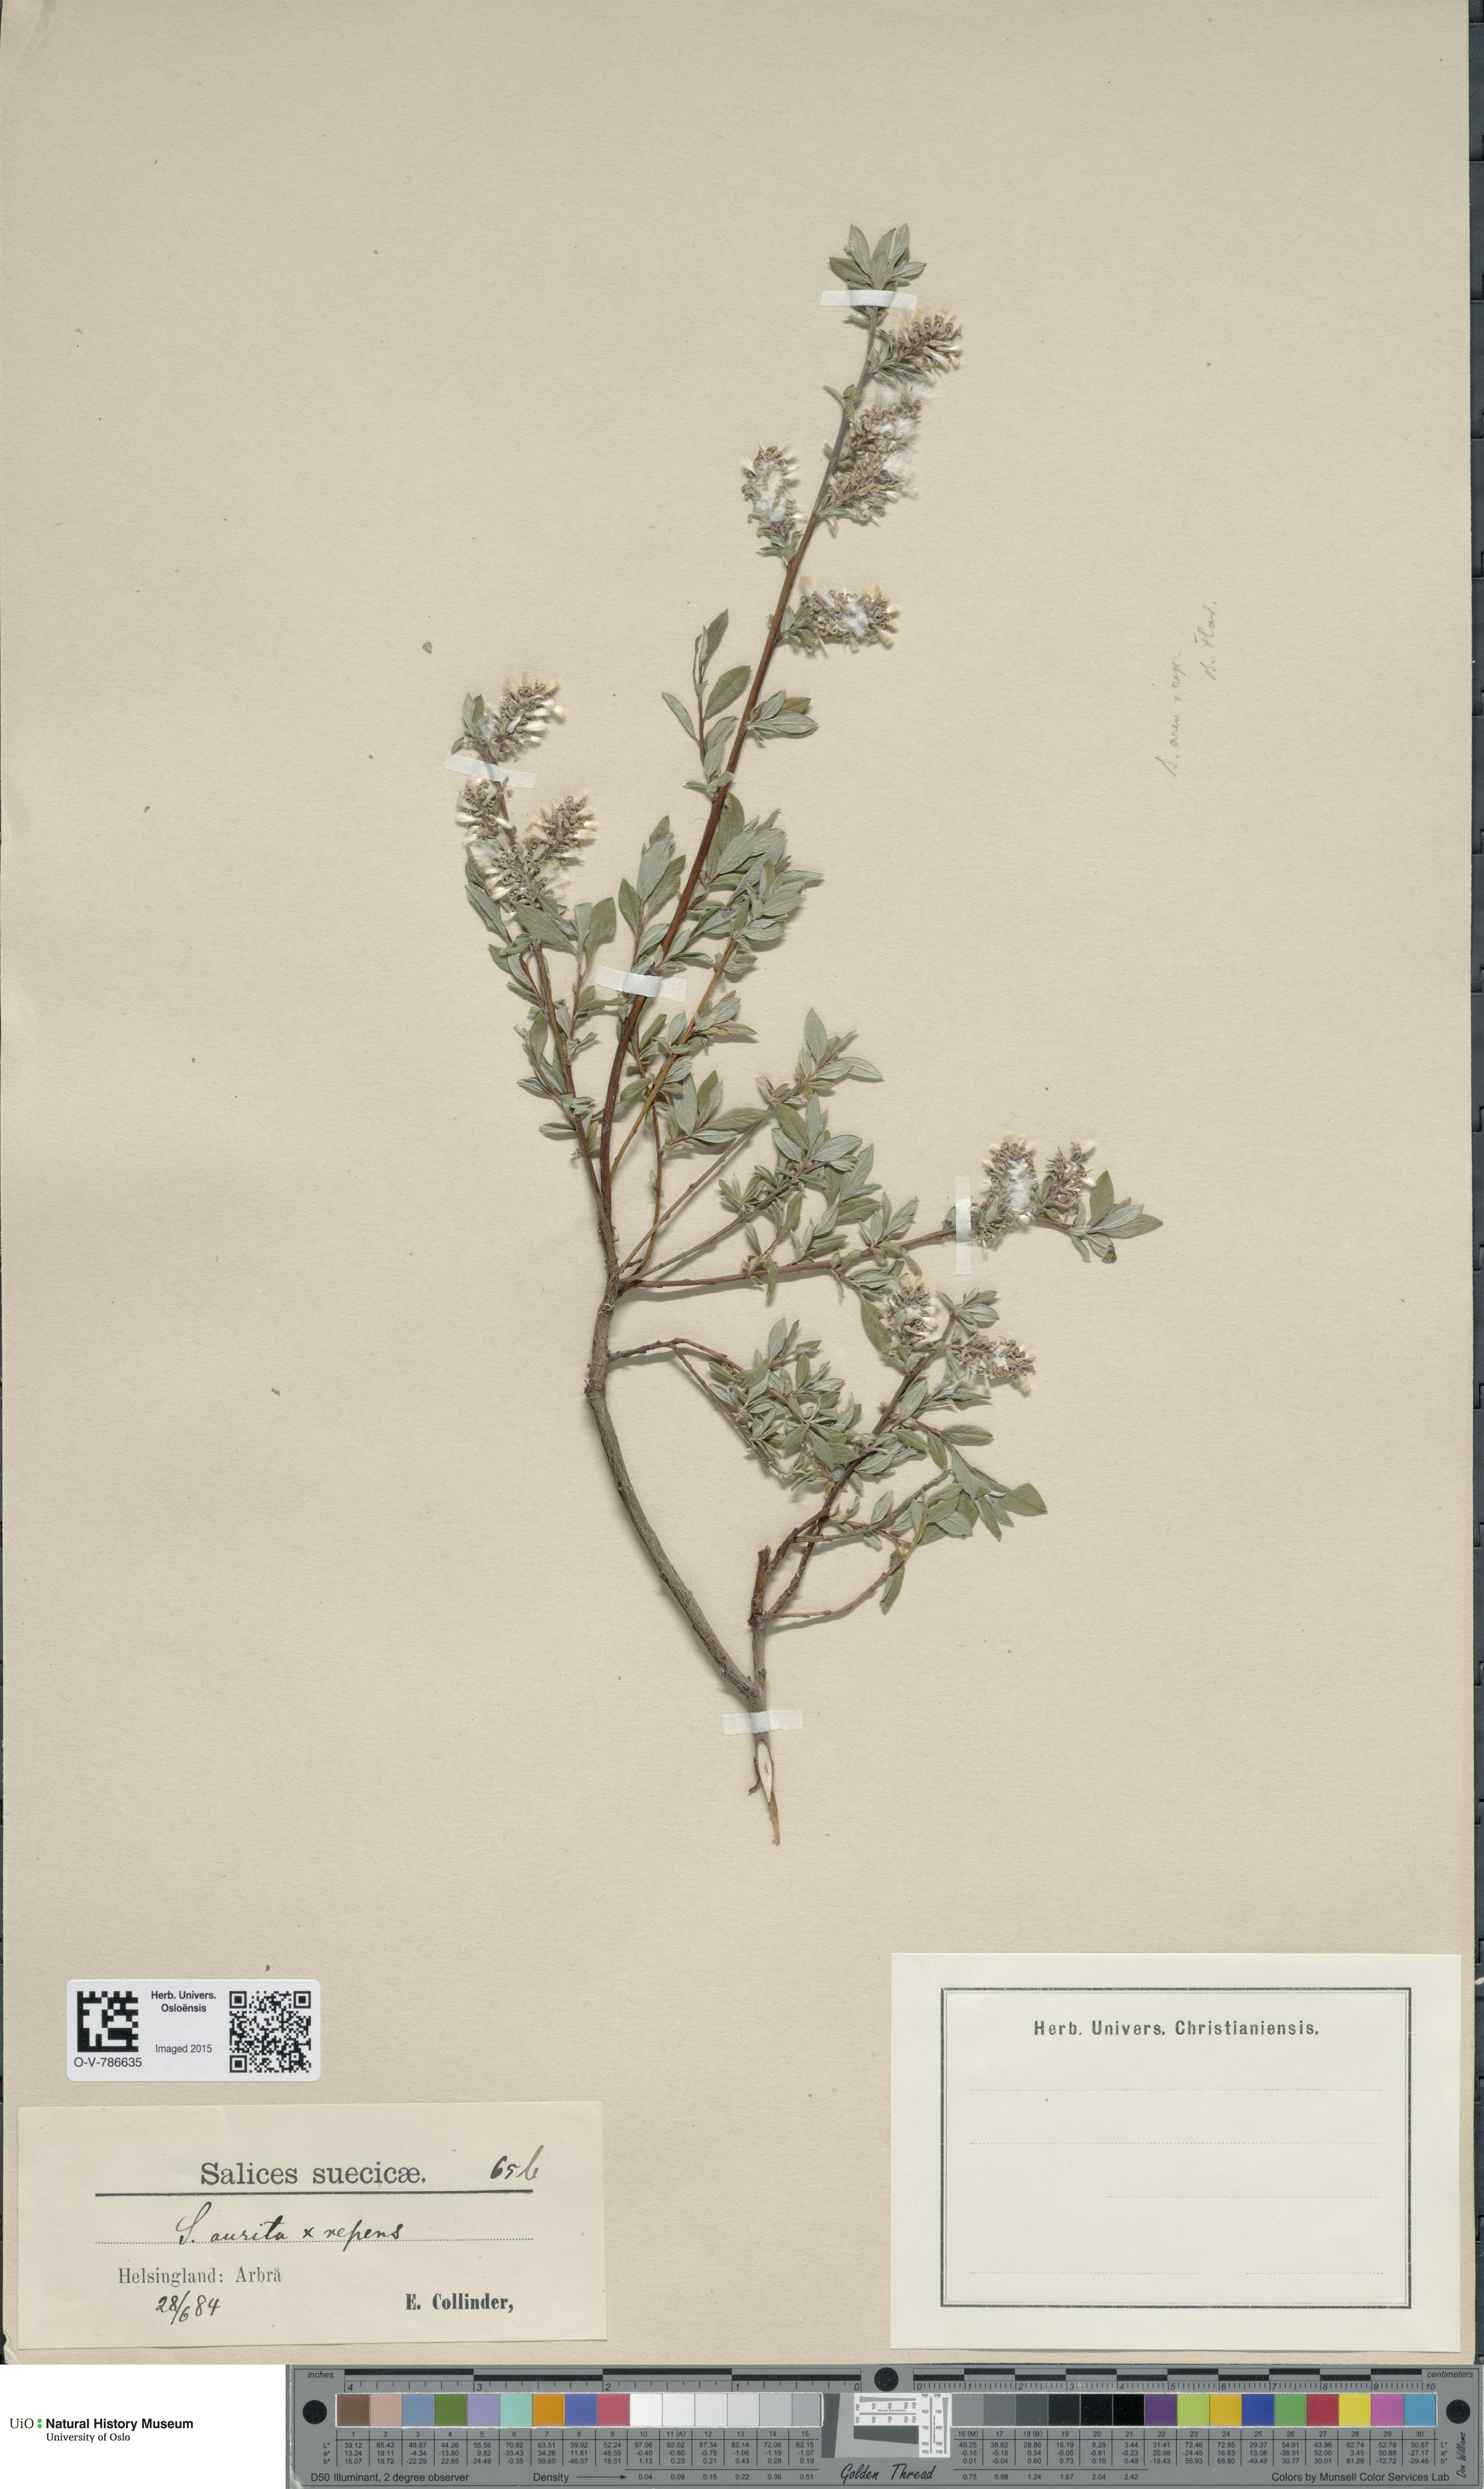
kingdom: Plantae
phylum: Tracheophyta
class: Magnoliopsida
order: Malpighiales
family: Salicaceae
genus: Salix
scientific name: Salix
